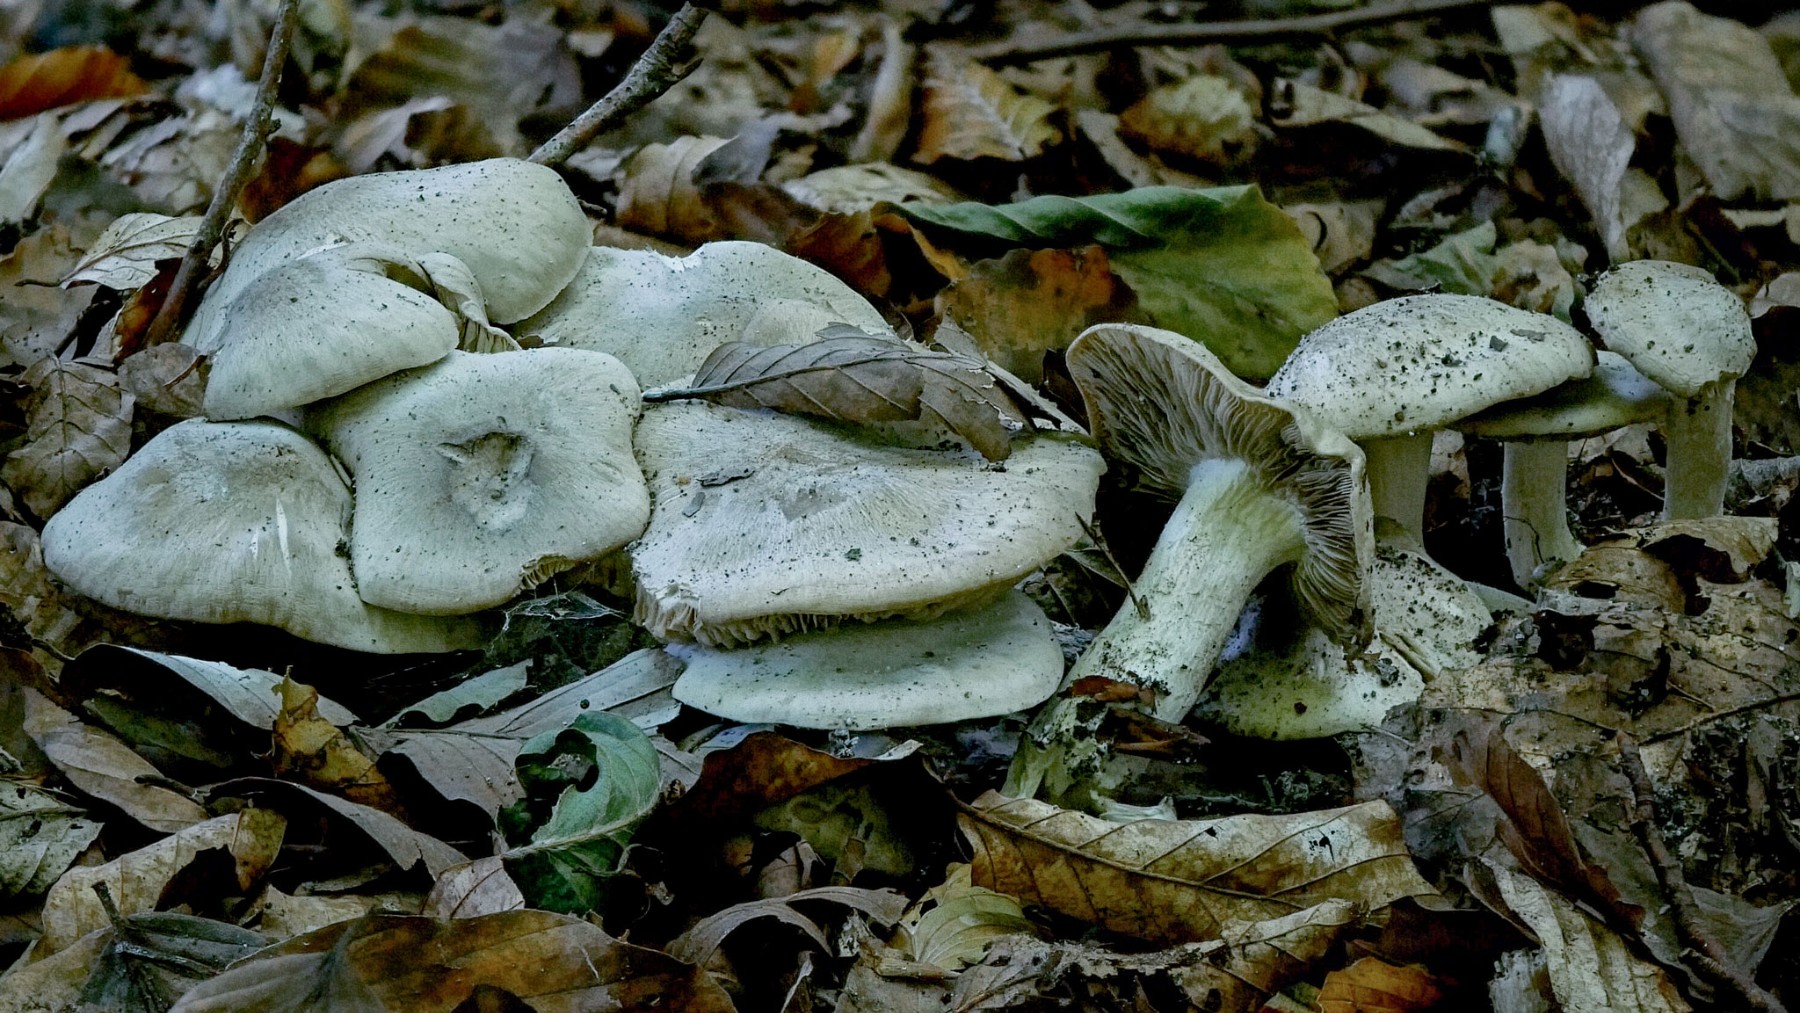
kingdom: Fungi
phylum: Basidiomycota
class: Agaricomycetes
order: Agaricales
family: Lyophyllaceae
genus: Lyophyllum
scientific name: Lyophyllum
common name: gråblad
